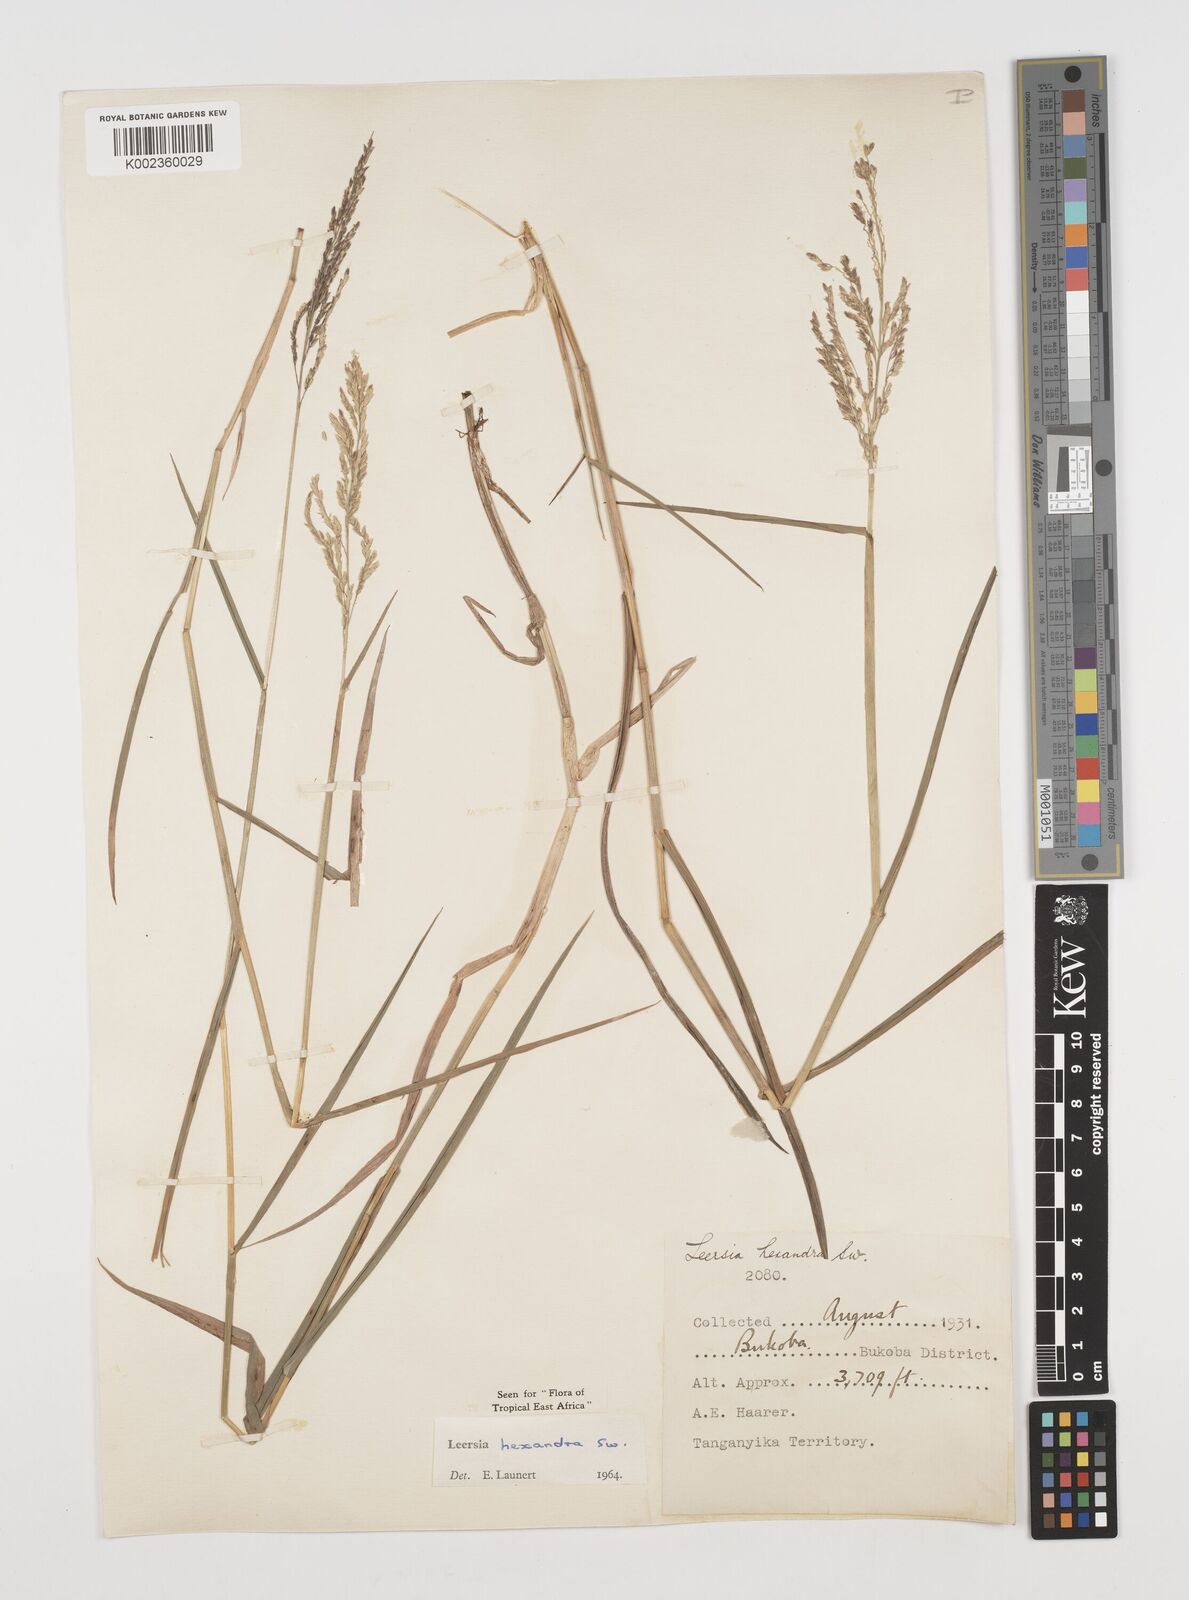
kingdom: Plantae
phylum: Tracheophyta
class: Liliopsida
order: Poales
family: Poaceae
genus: Leersia
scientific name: Leersia hexandra
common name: Southern cut grass
